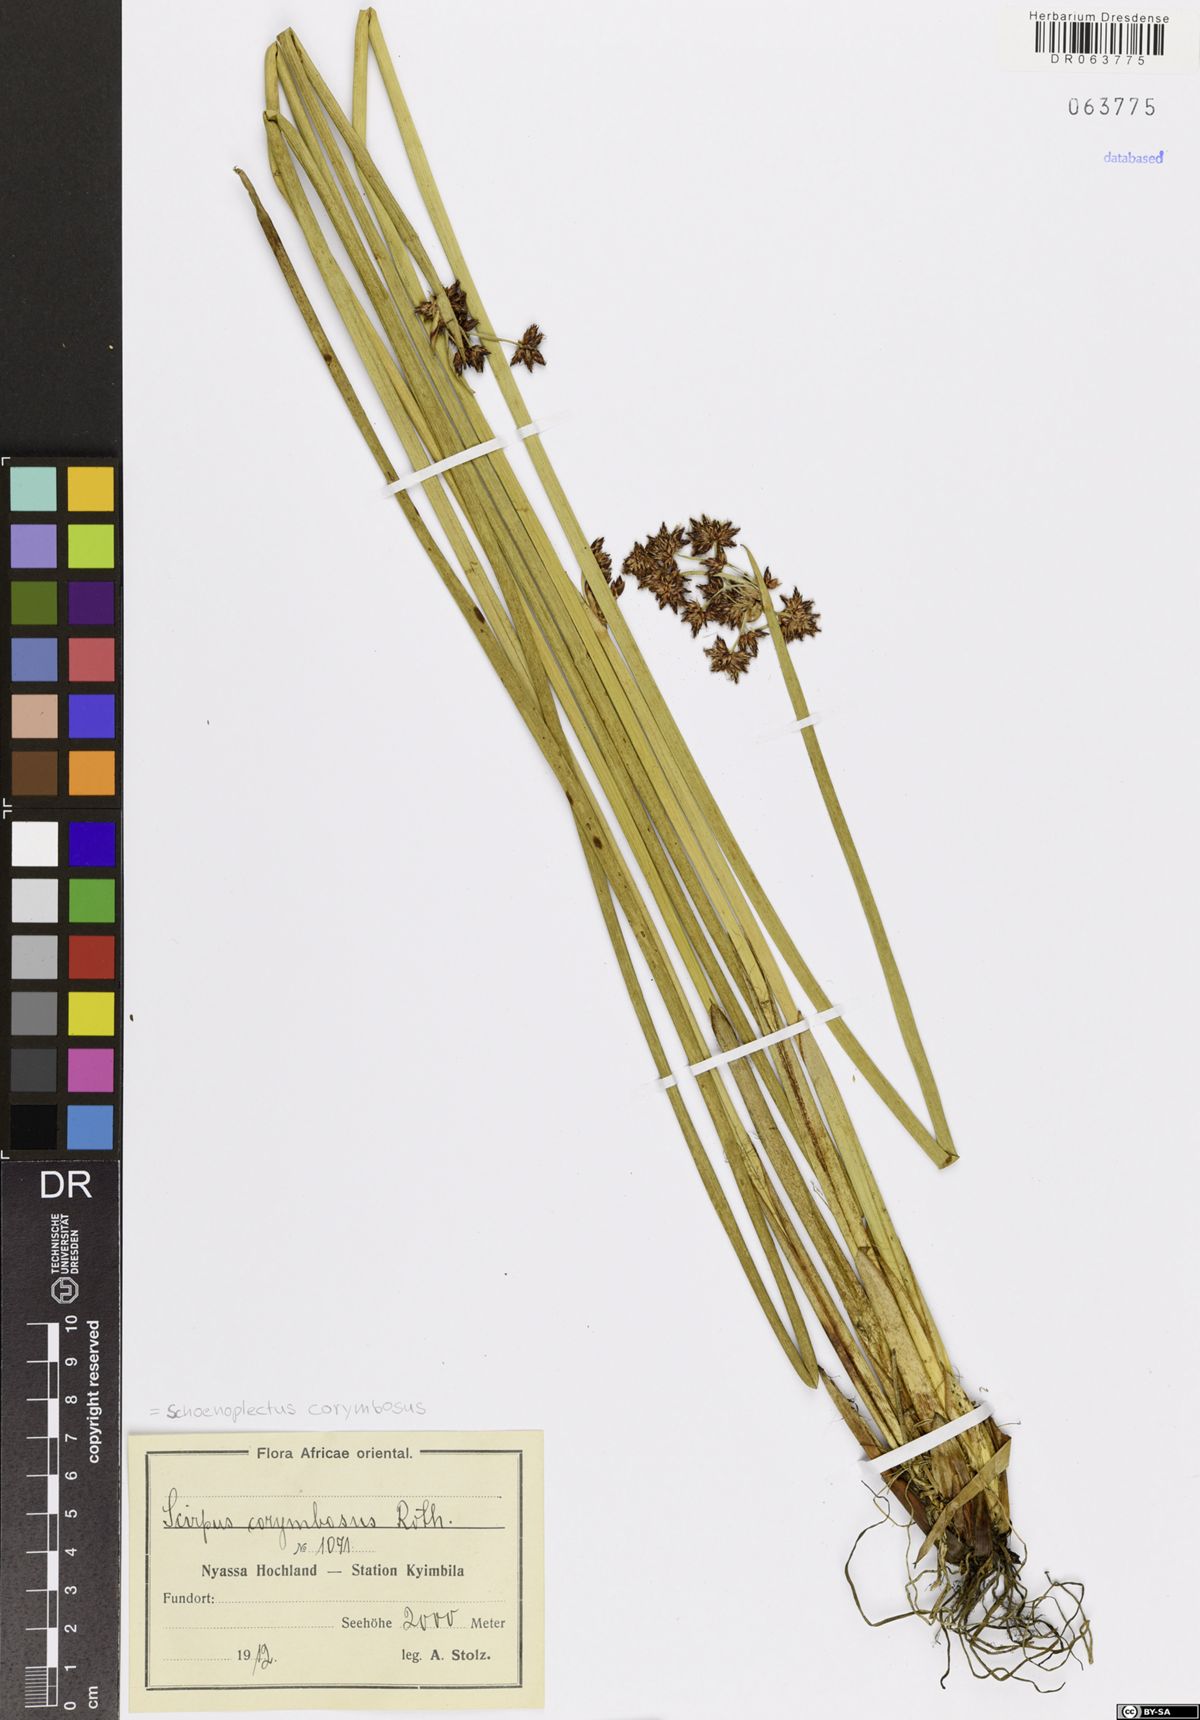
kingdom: Plantae
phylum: Tracheophyta
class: Liliopsida
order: Poales
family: Cyperaceae
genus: Schoenoplectiella
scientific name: Schoenoplectiella corymbosa
